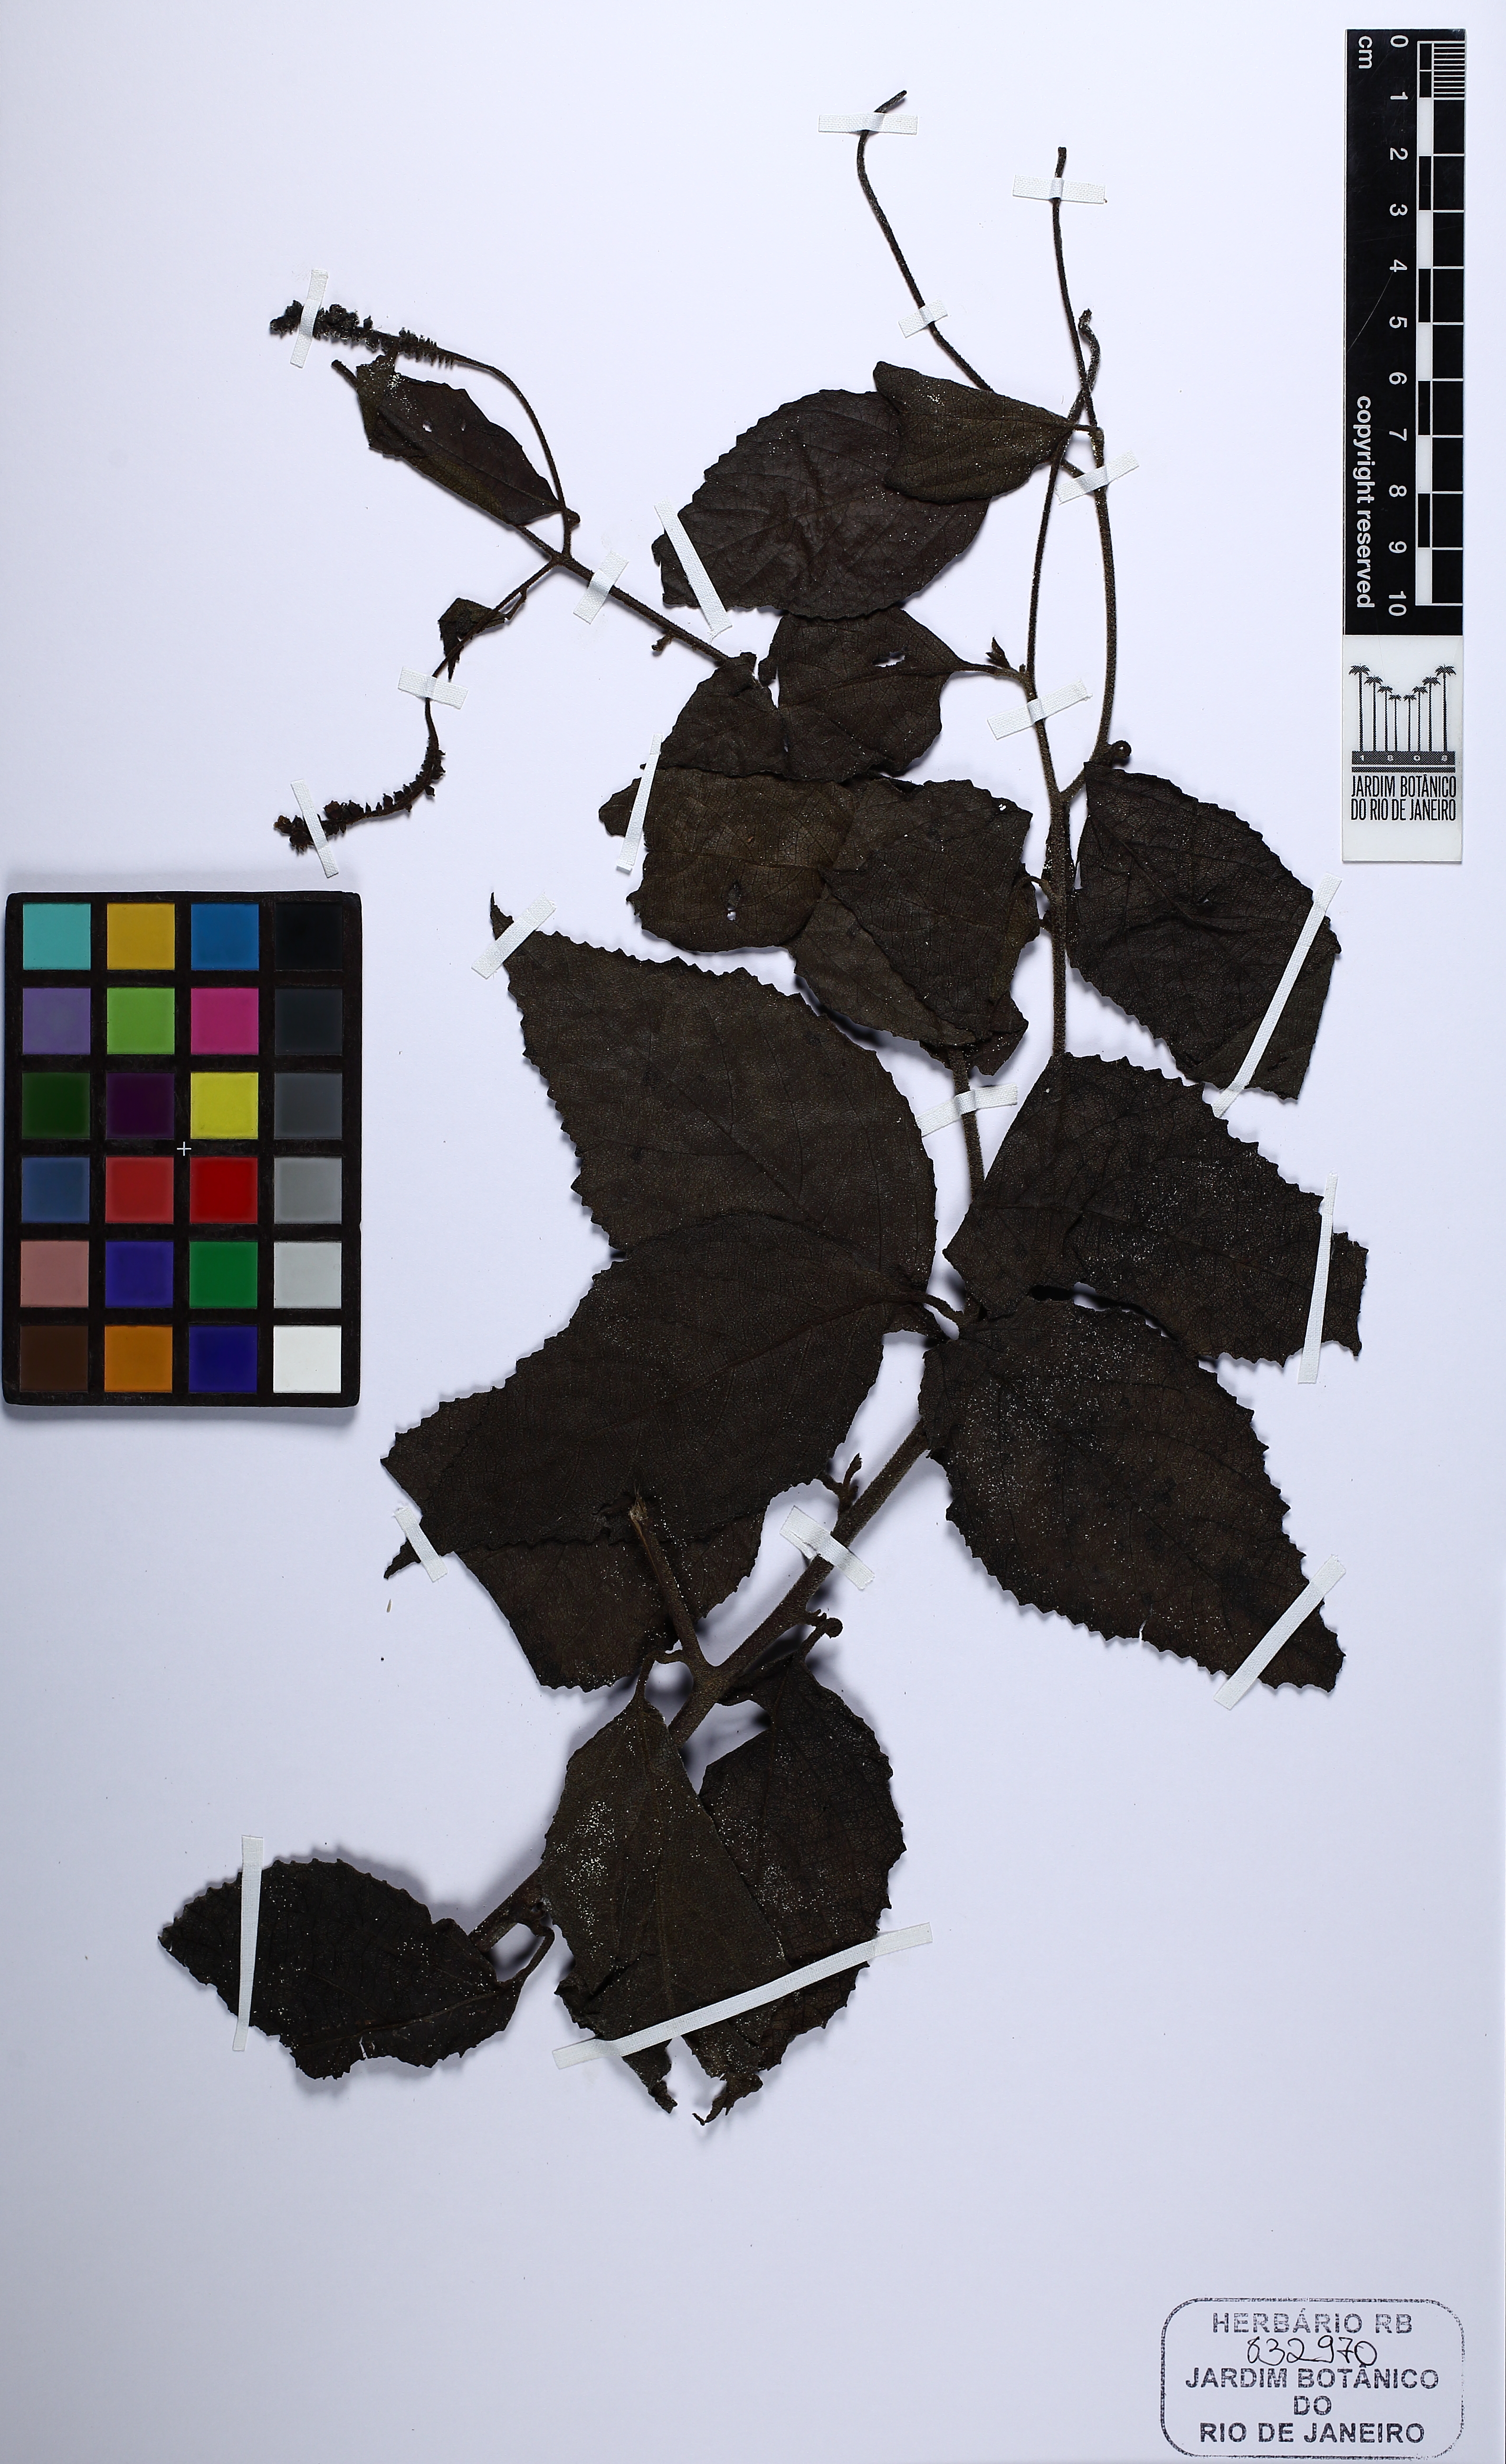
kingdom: Plantae
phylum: Tracheophyta
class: Magnoliopsida
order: Boraginales
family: Cordiaceae
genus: Varronia
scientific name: Varronia multispicata
